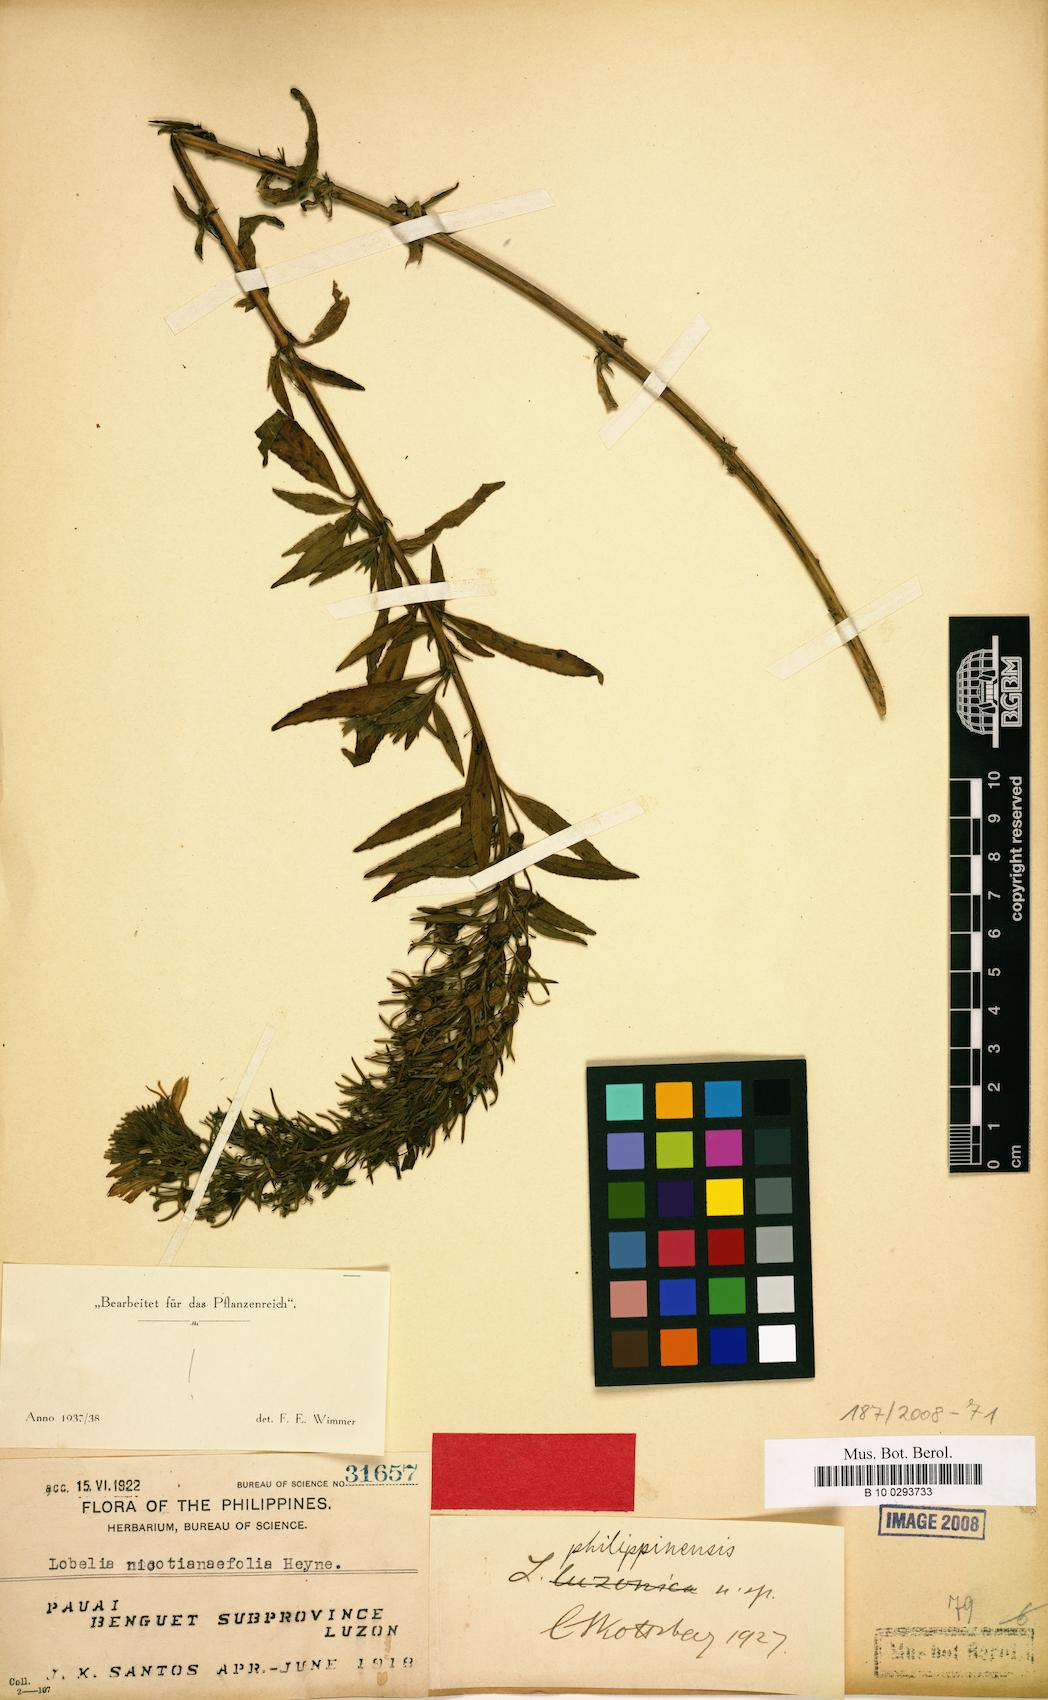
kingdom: Plantae
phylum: Tracheophyta
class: Magnoliopsida
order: Asterales
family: Campanulaceae
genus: Lobelia
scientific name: Lobelia philippinensis
